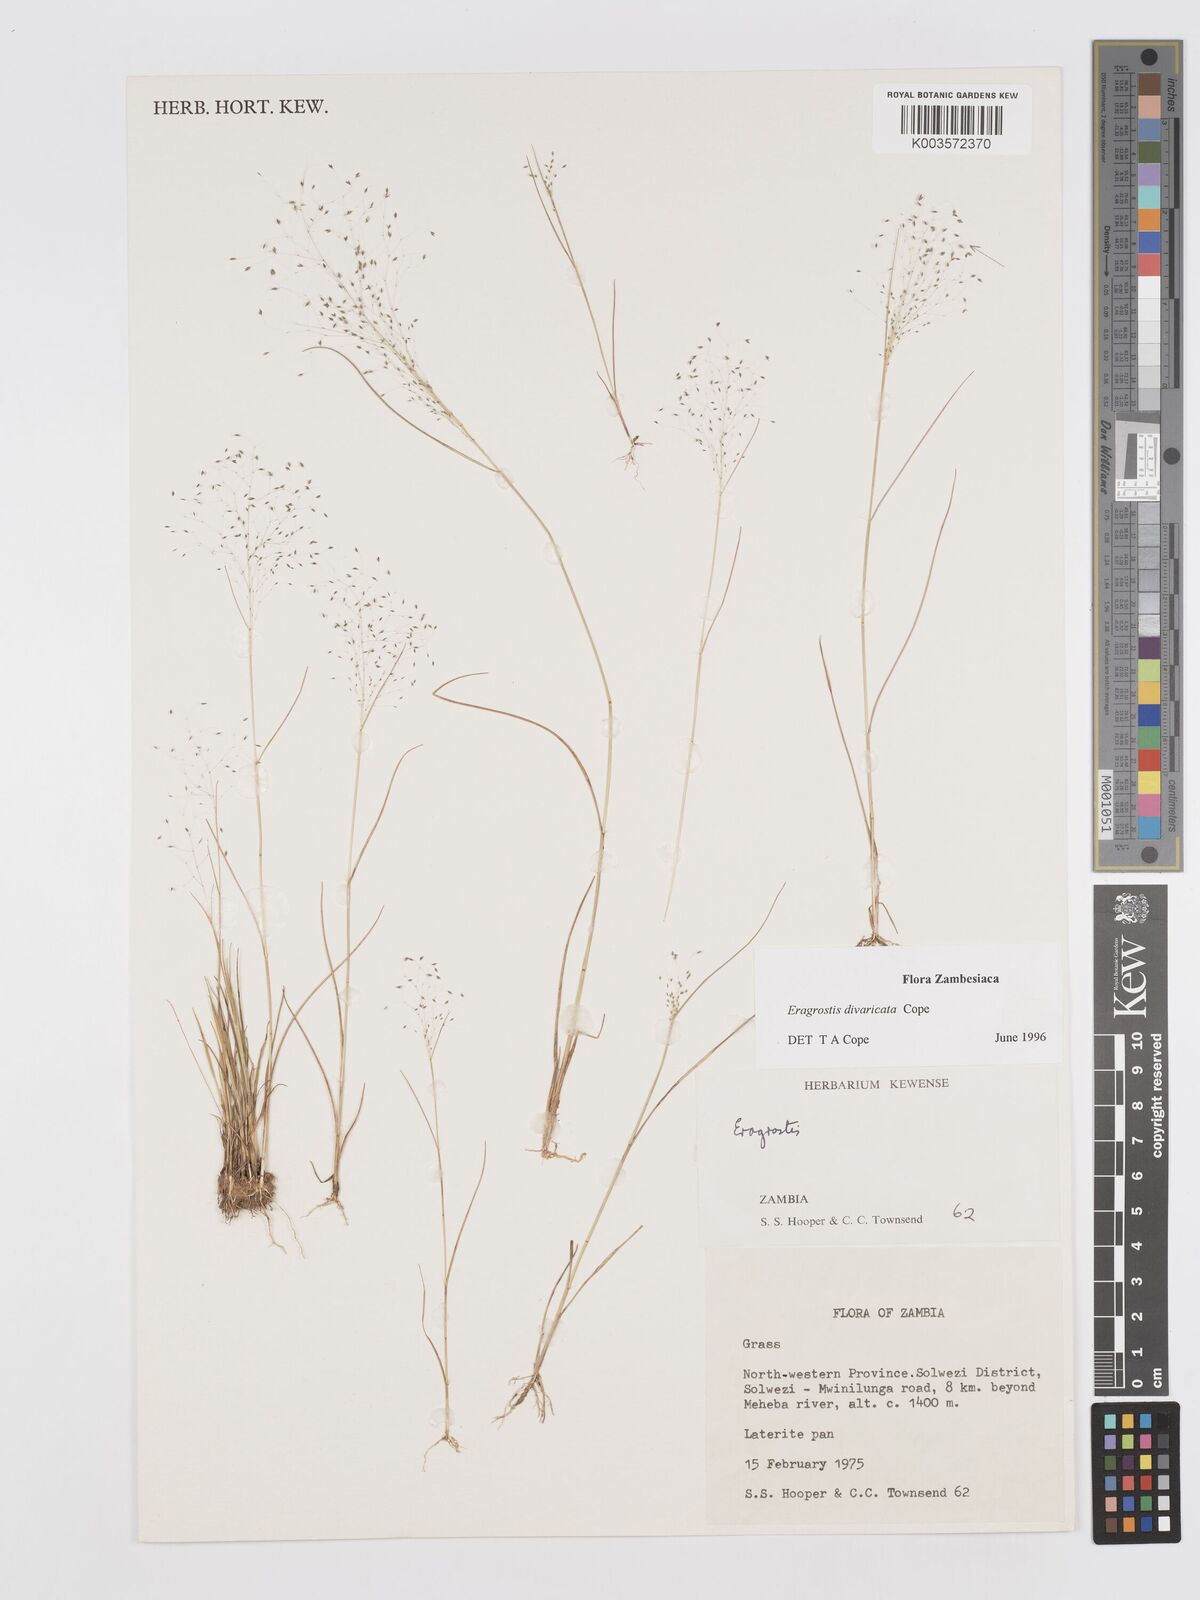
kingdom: Plantae
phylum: Tracheophyta
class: Liliopsida
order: Poales
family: Poaceae
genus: Eragrostis
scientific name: Eragrostis divaricata
